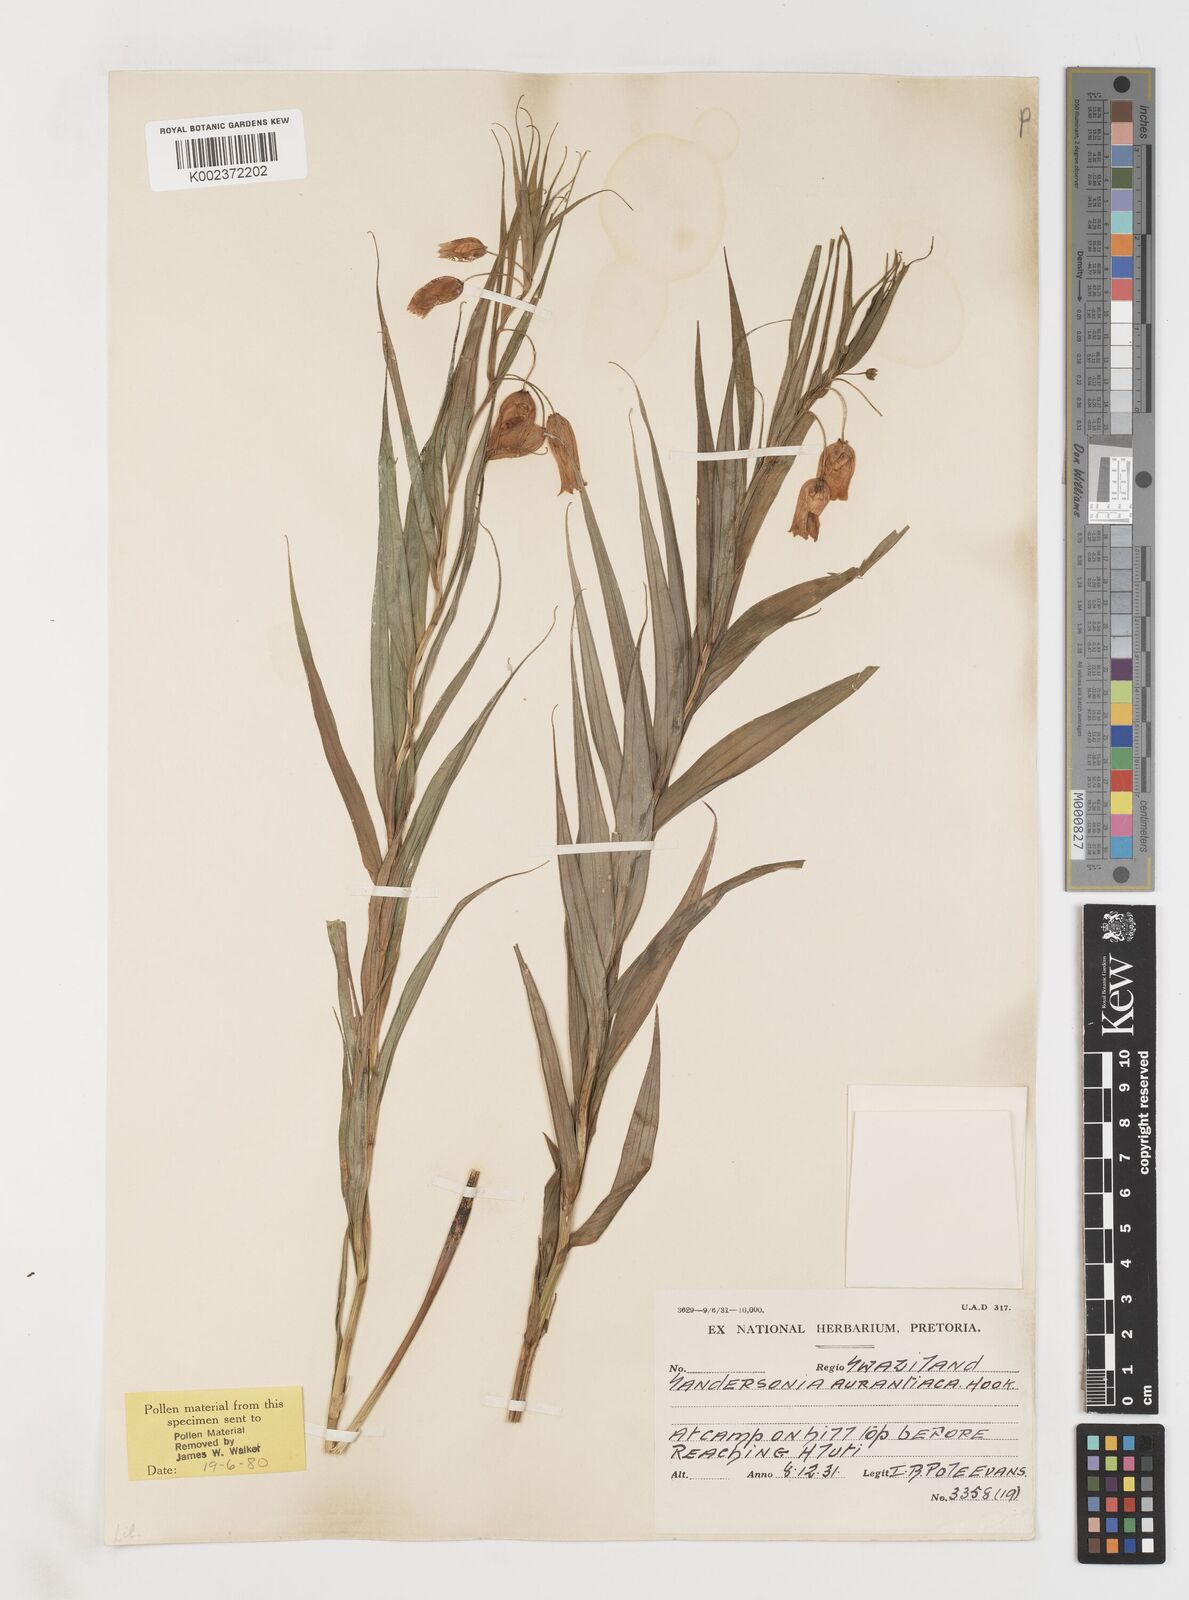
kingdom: Plantae
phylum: Tracheophyta
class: Liliopsida
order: Liliales
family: Colchicaceae
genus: Sandersonia
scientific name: Sandersonia aurantiaca
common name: Chinese-lantern-lily
